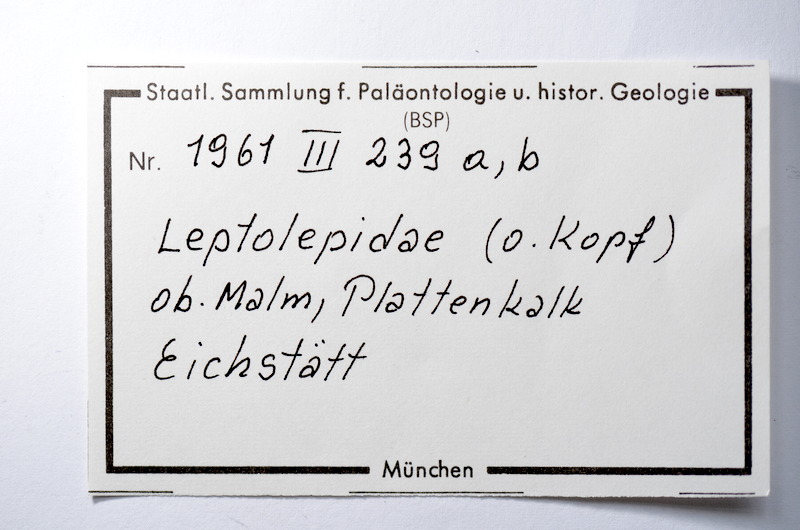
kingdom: Animalia
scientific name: Animalia
